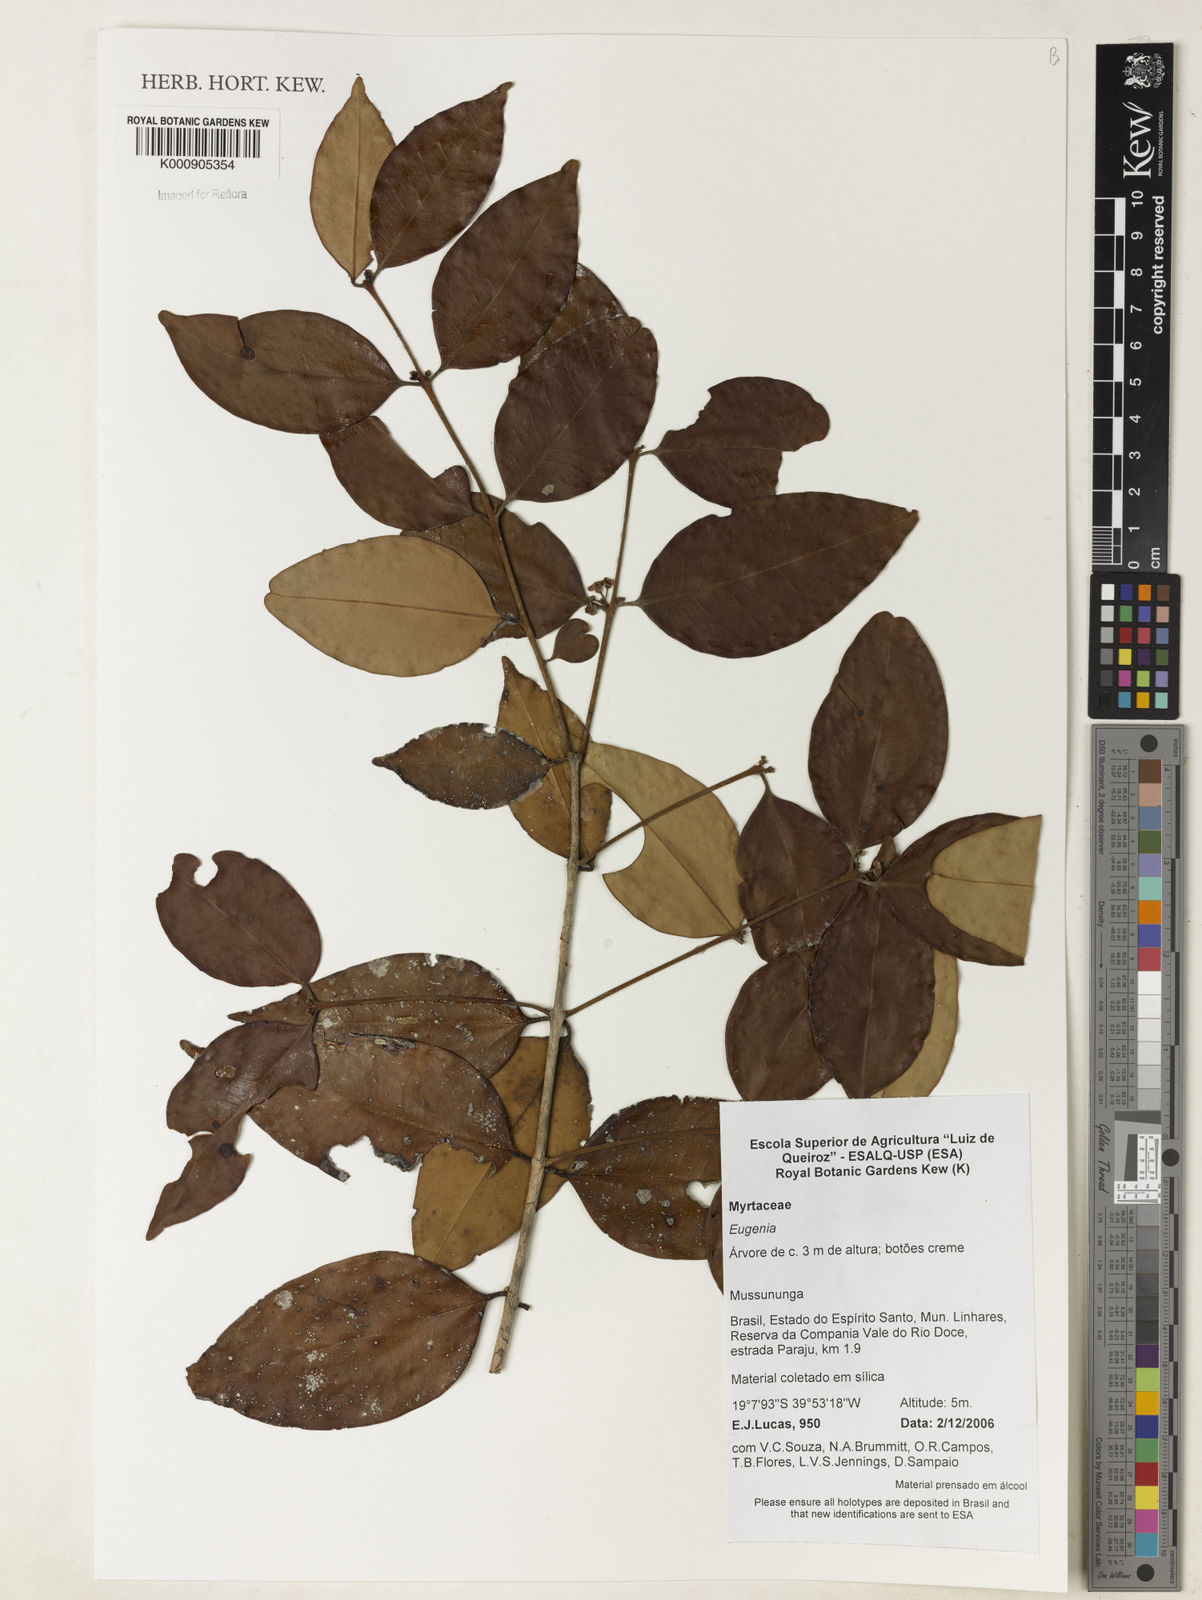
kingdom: Plantae
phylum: Tracheophyta
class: Magnoliopsida
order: Myrtales
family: Myrtaceae
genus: Eugenia
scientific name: Eugenia brejoensis
